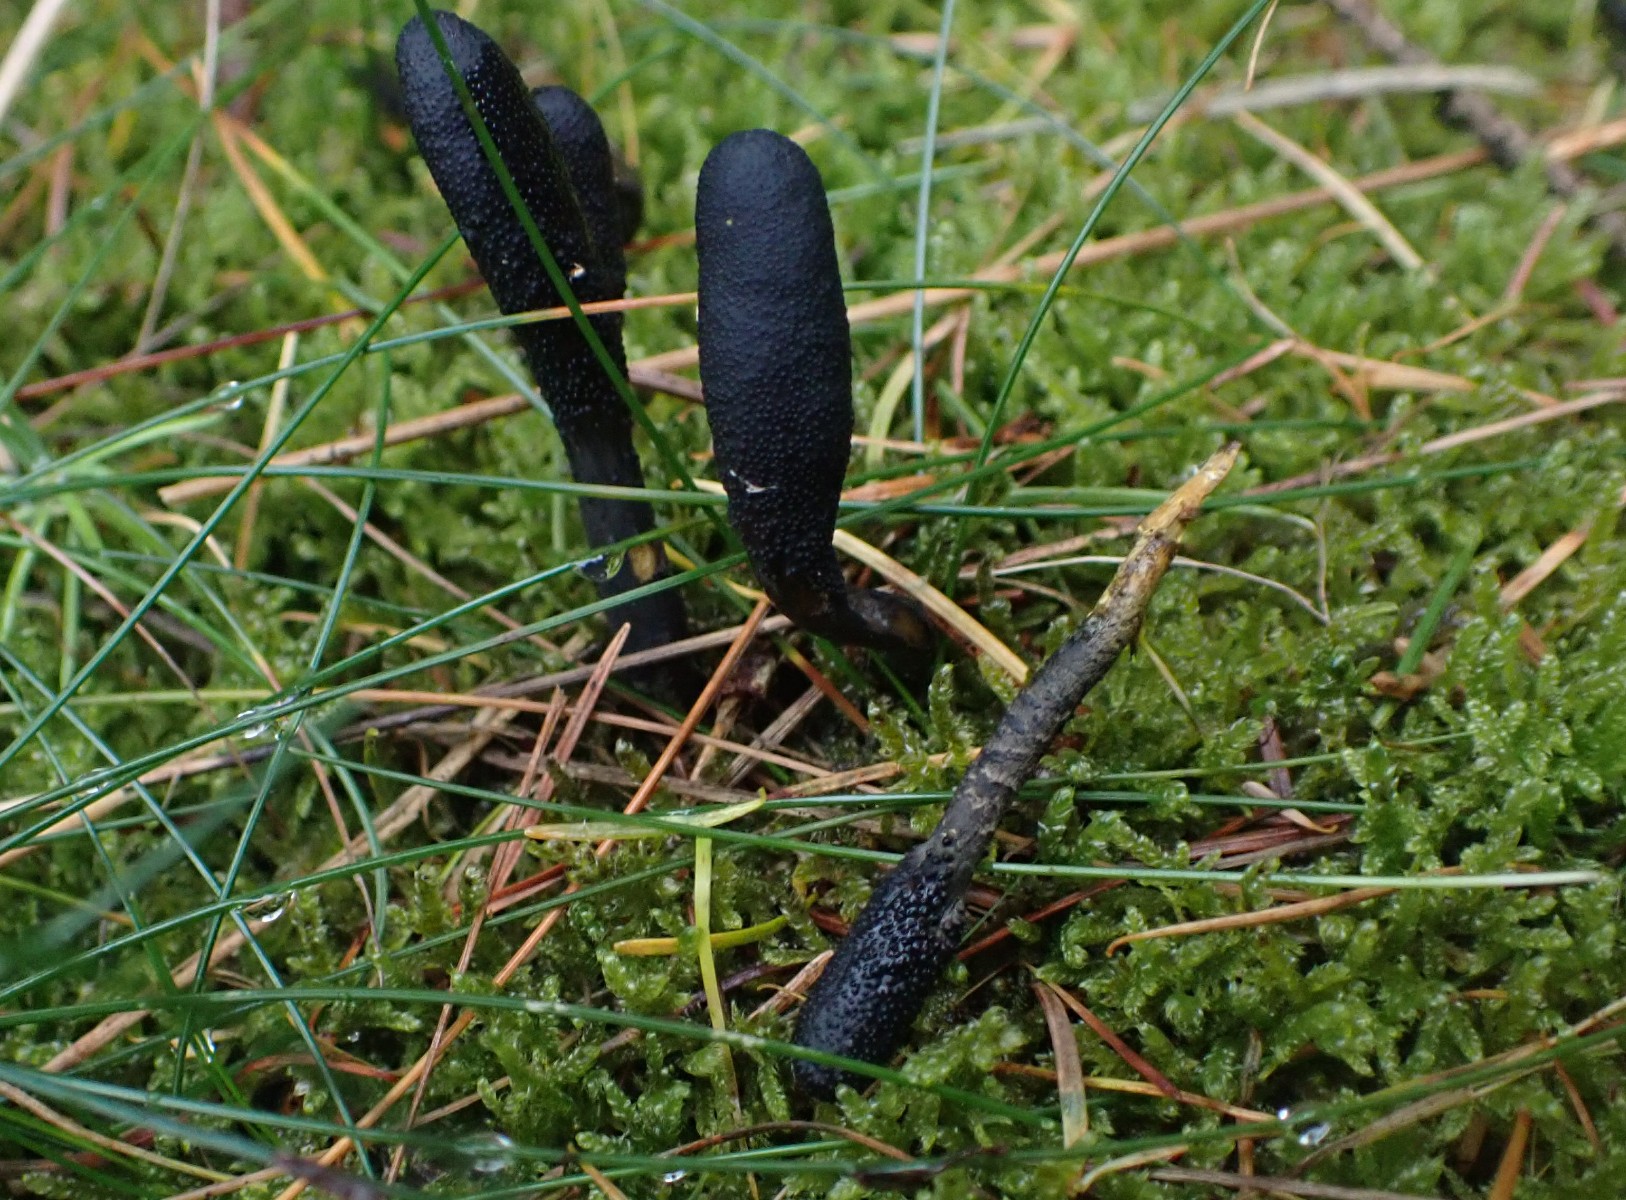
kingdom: Fungi
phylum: Ascomycota
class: Sordariomycetes
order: Hypocreales
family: Ophiocordycipitaceae
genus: Tolypocladium
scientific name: Tolypocladium ophioglossoides
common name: slank snyltekølle
